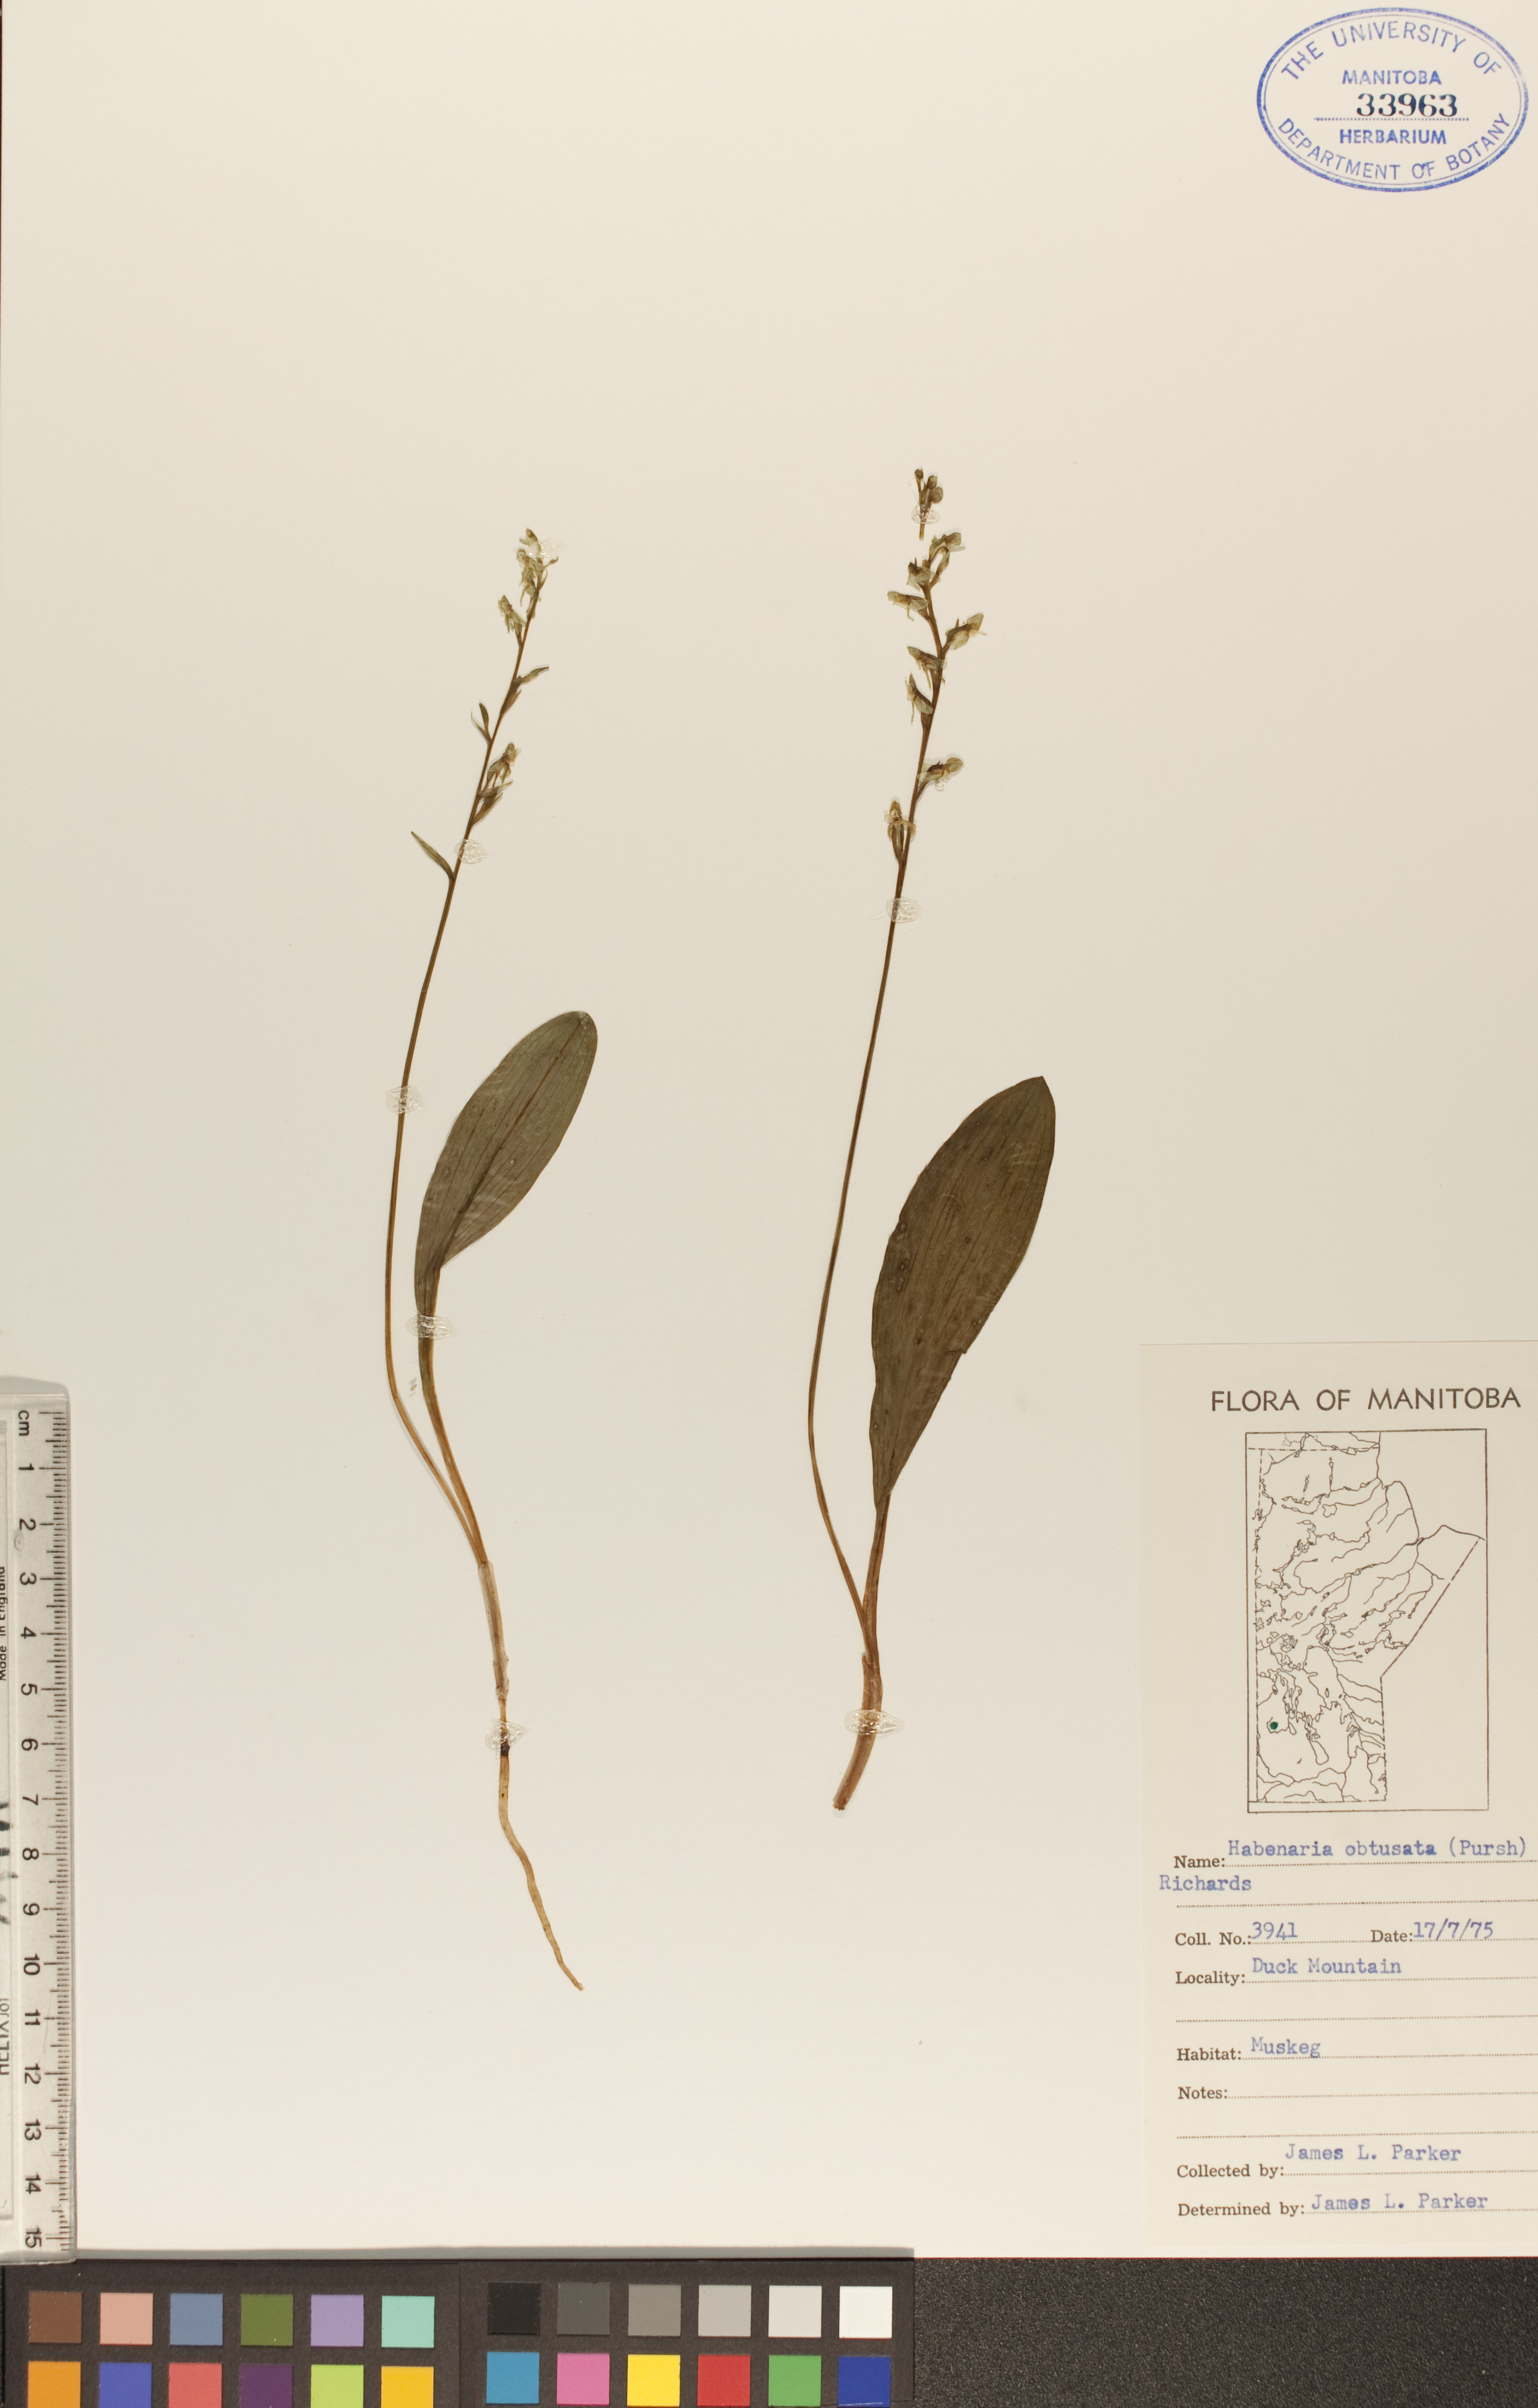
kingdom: Plantae
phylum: Tracheophyta
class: Liliopsida
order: Asparagales
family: Orchidaceae
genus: Platanthera
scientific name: Platanthera obtusata
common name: Blunt bog orchid
